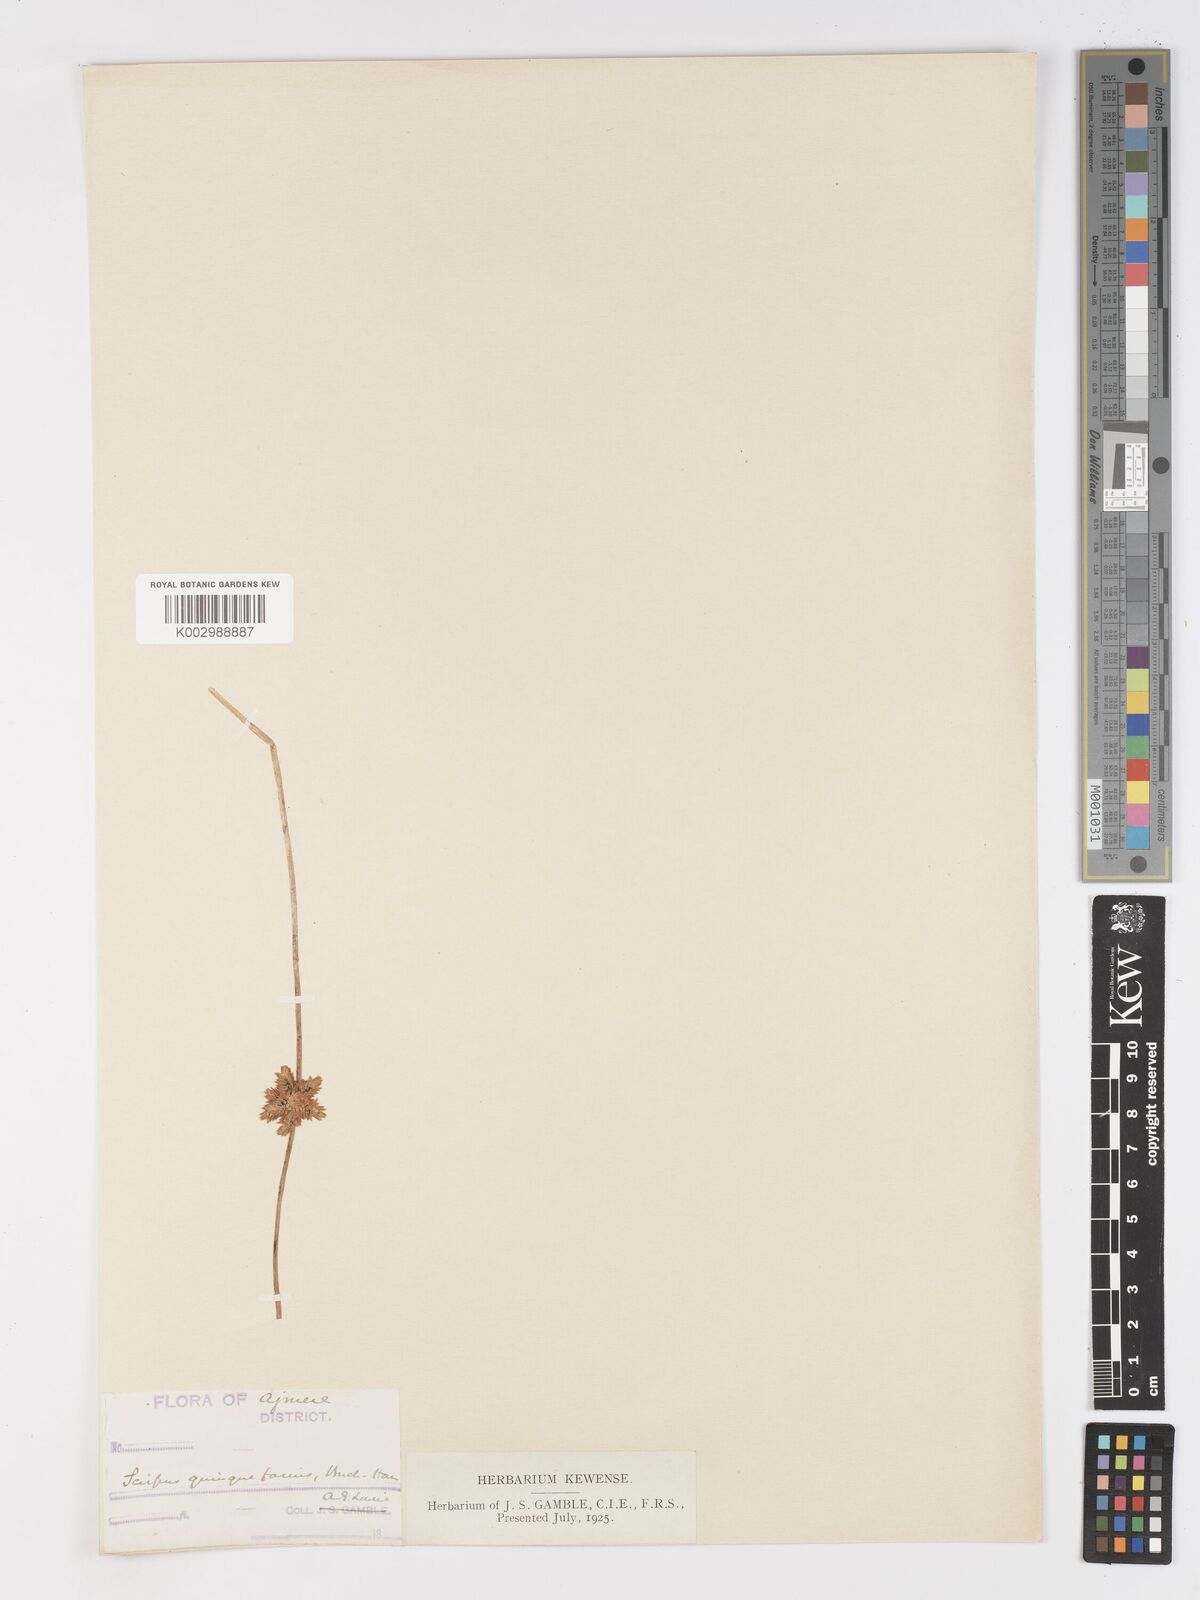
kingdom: Plantae
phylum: Tracheophyta
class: Liliopsida
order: Poales
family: Cyperaceae
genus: Schoenoplectiella
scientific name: Schoenoplectiella roylei
